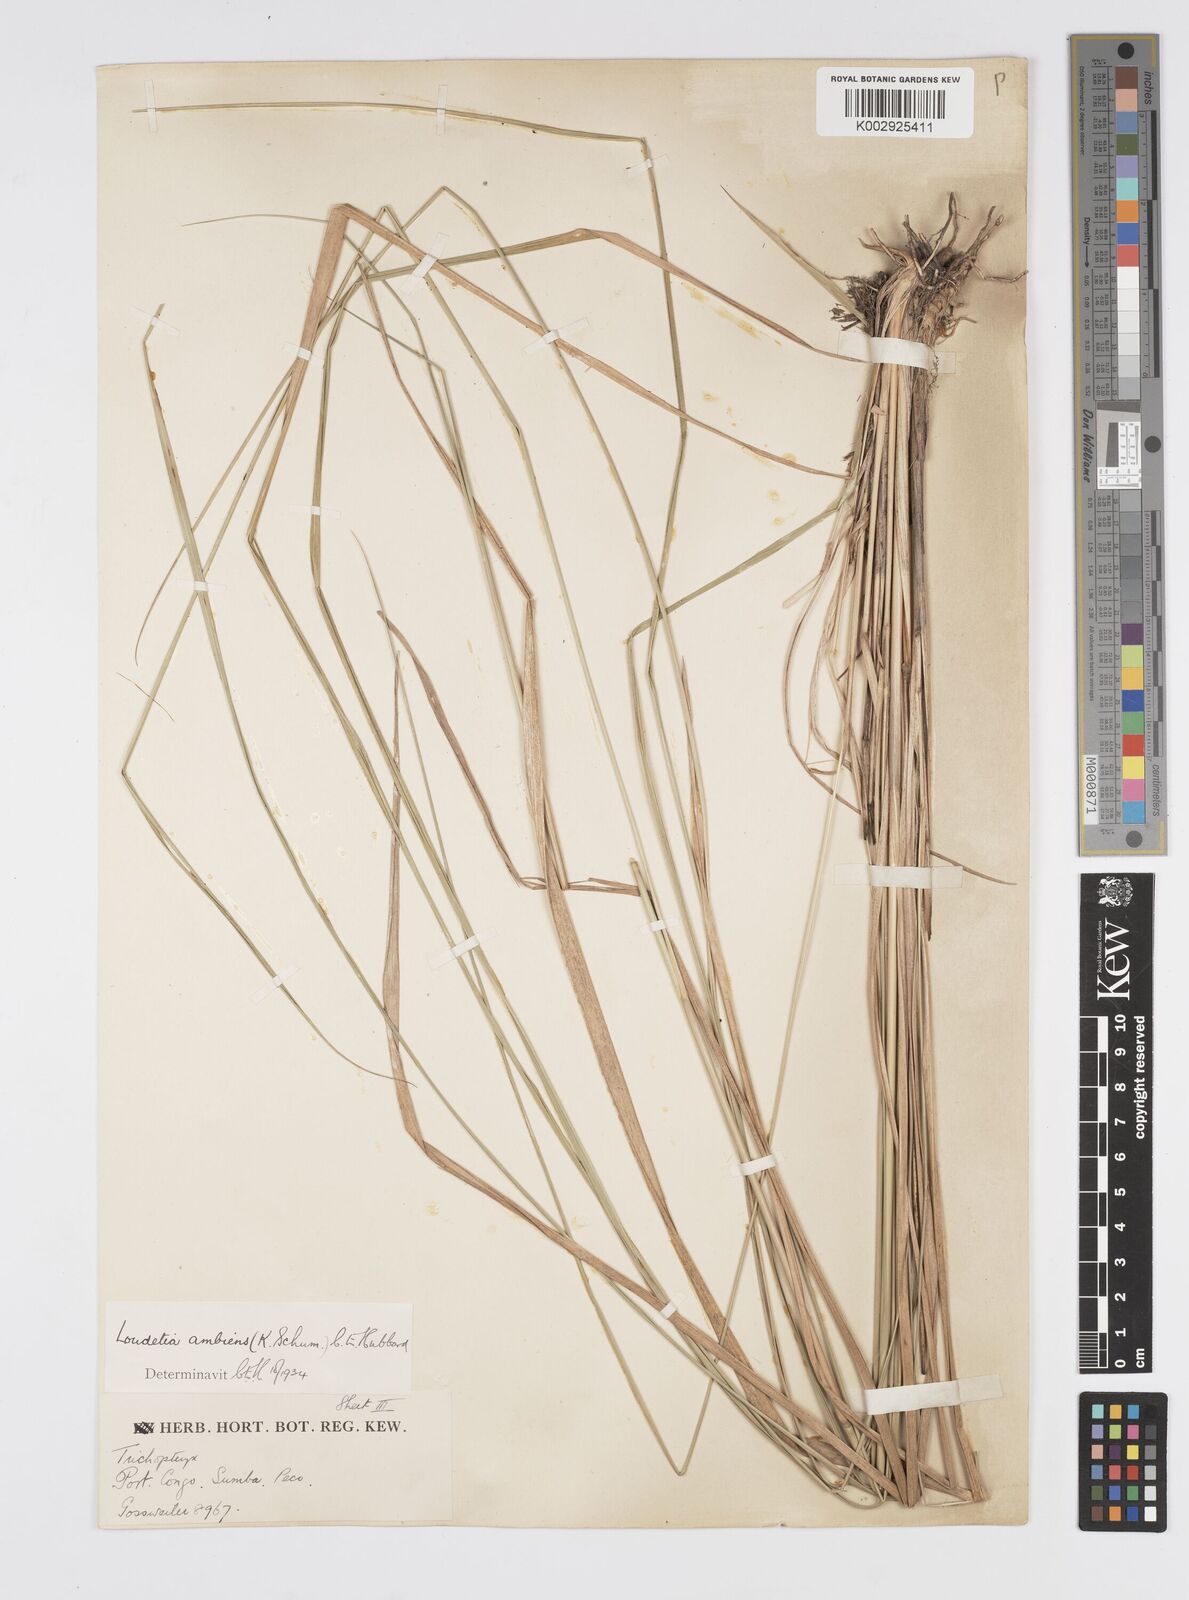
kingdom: Plantae
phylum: Tracheophyta
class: Liliopsida
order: Poales
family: Poaceae
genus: Loudetiopsis
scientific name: Loudetiopsis ambiens
